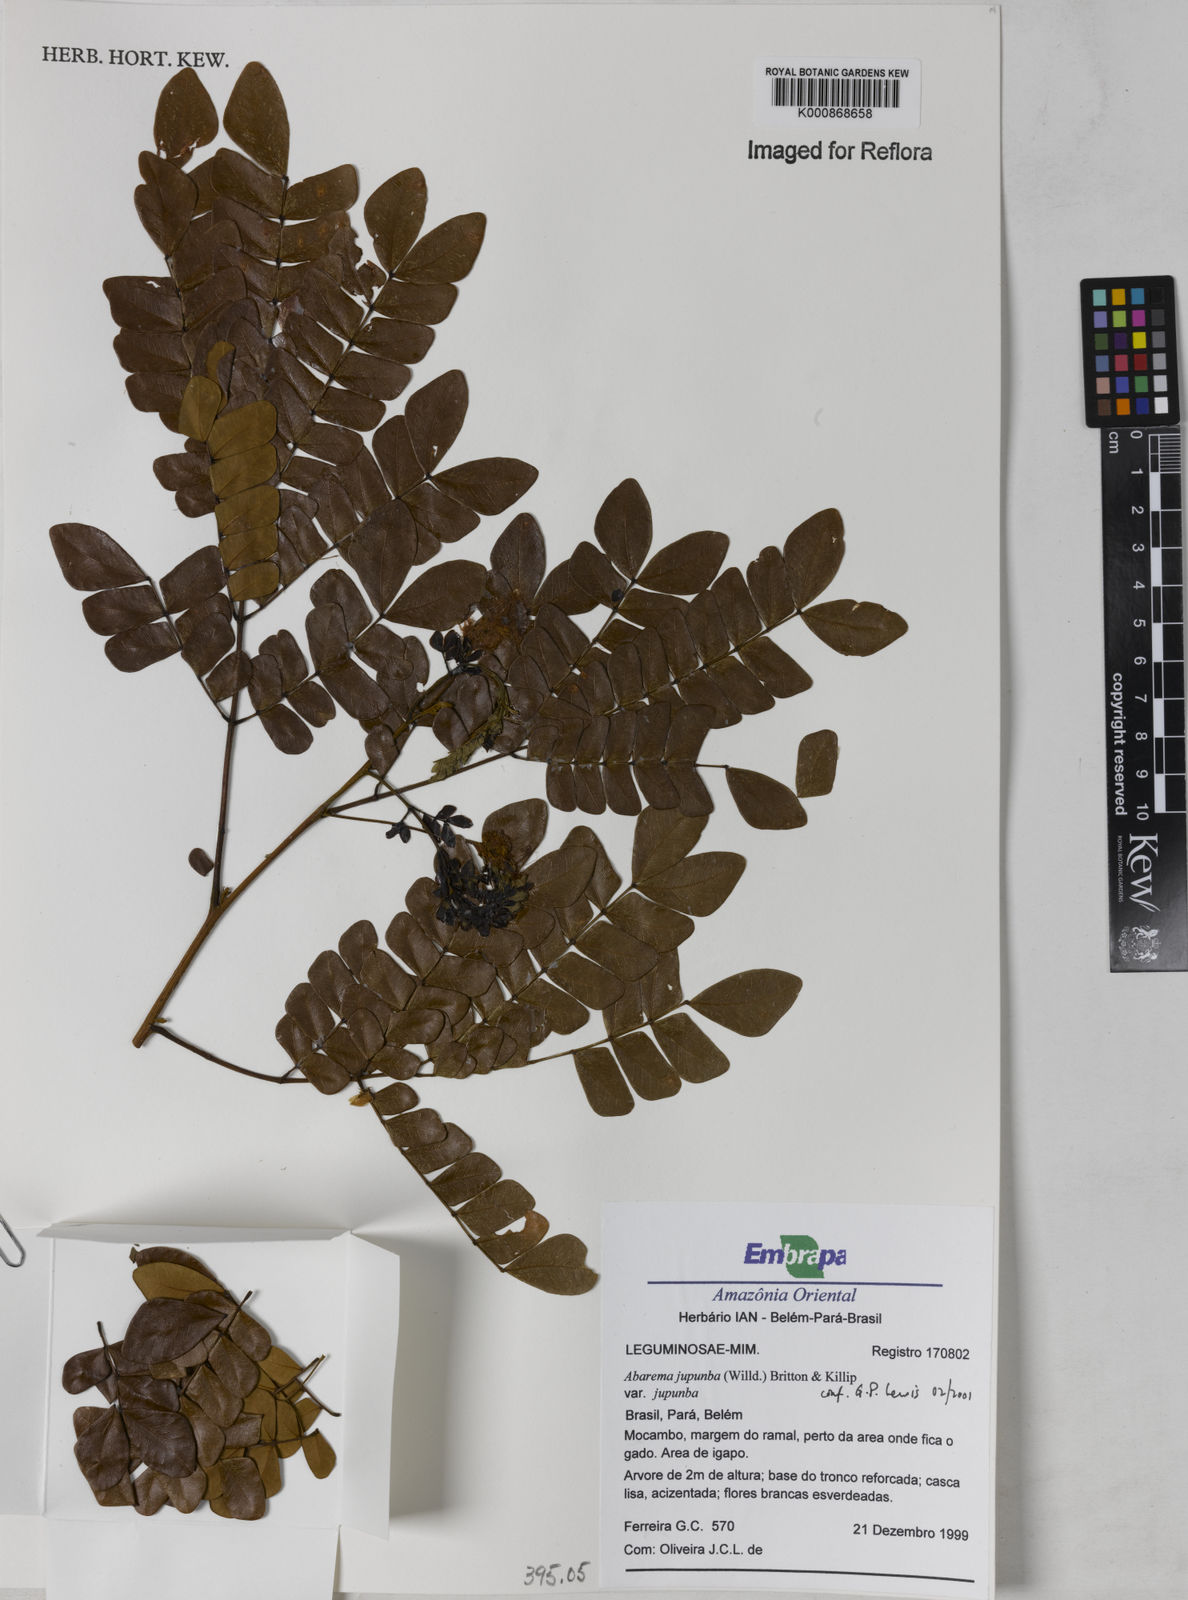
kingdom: Plantae
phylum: Tracheophyta
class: Magnoliopsida
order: Fabales
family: Fabaceae
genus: Jupunba
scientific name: Jupunba trapezifolia
